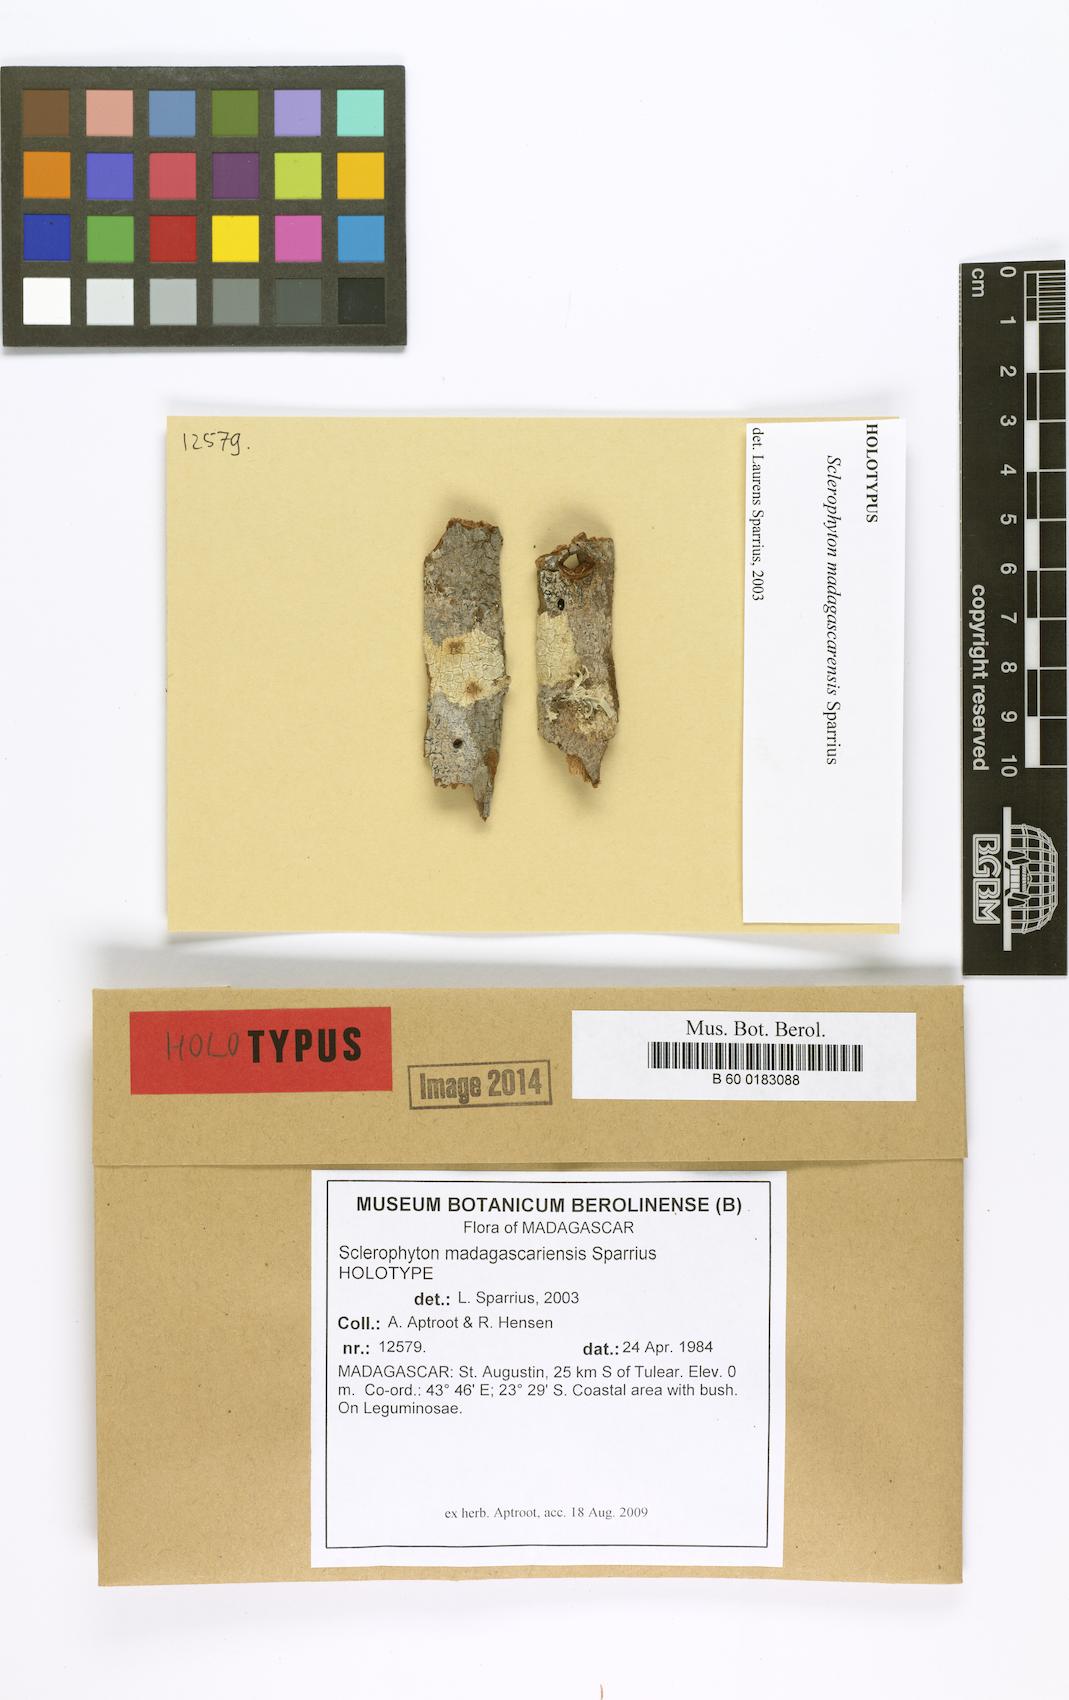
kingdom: Fungi
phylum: Ascomycota
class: Arthoniomycetes
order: Arthoniales
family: Opegraphaceae
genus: Sclerophyton
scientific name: Sclerophyton madagascariense
